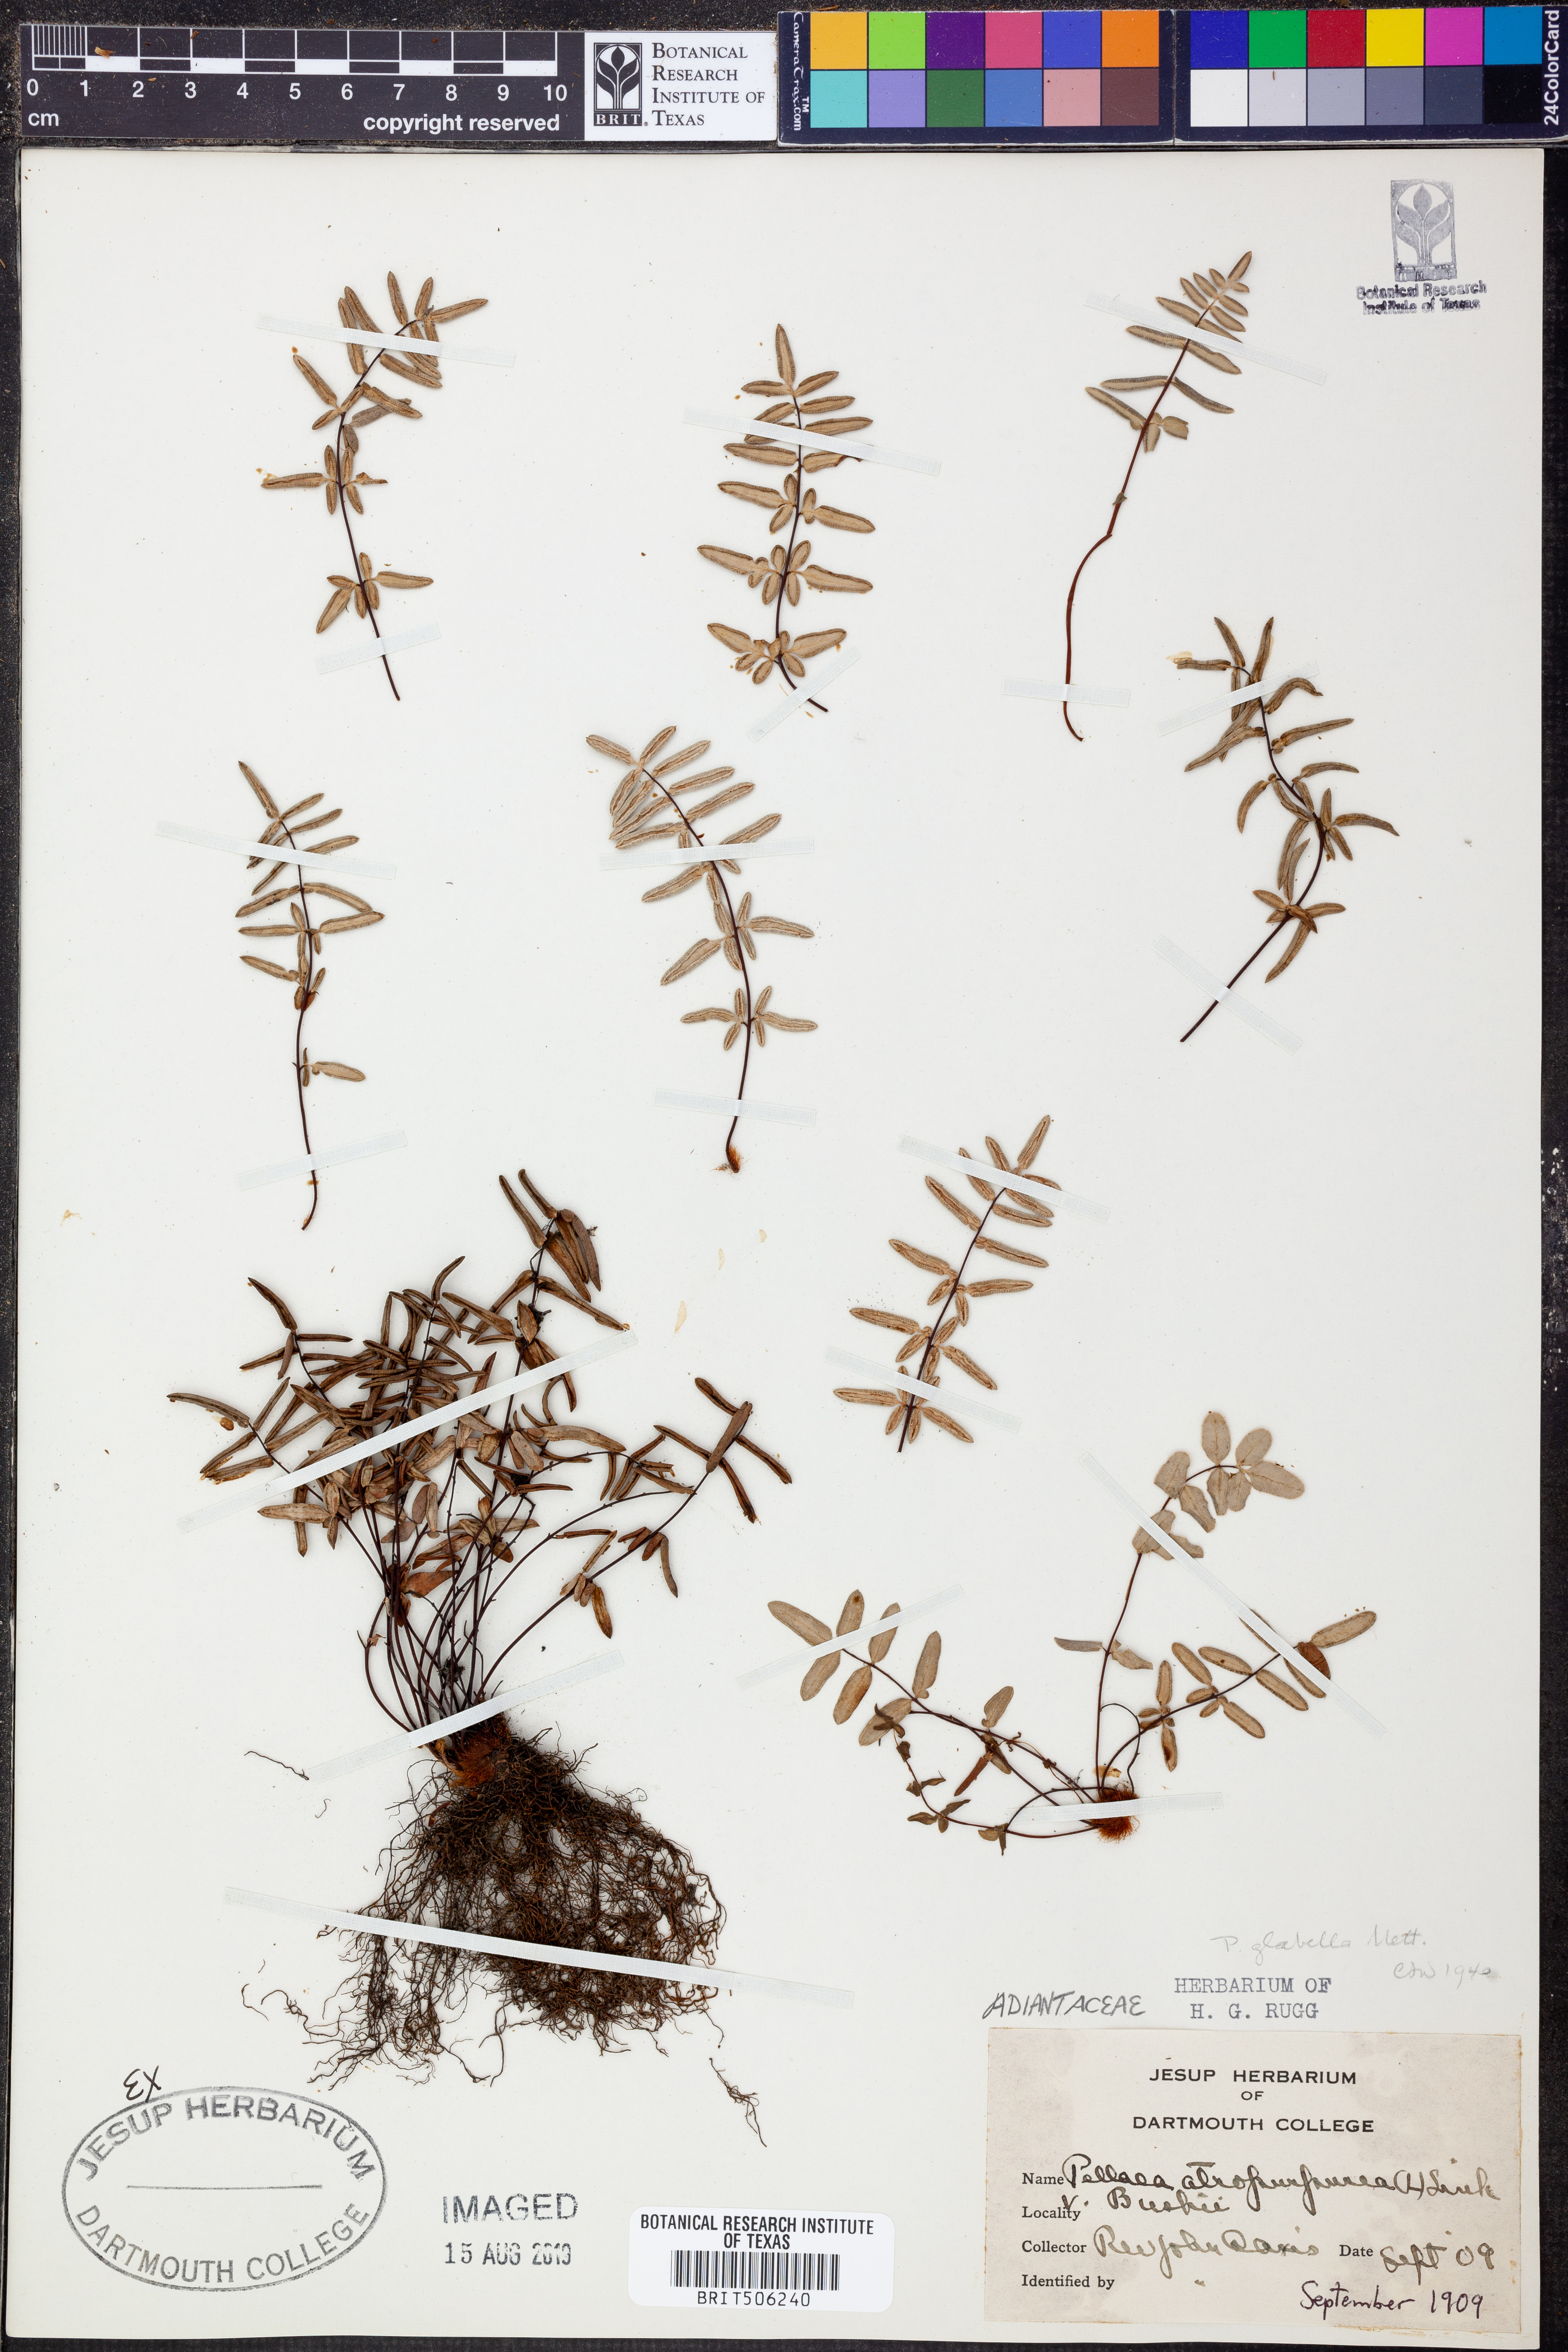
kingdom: Plantae
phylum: Tracheophyta
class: Polypodiopsida
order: Polypodiales
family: Pteridaceae
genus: Pellaea
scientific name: Pellaea glabella
